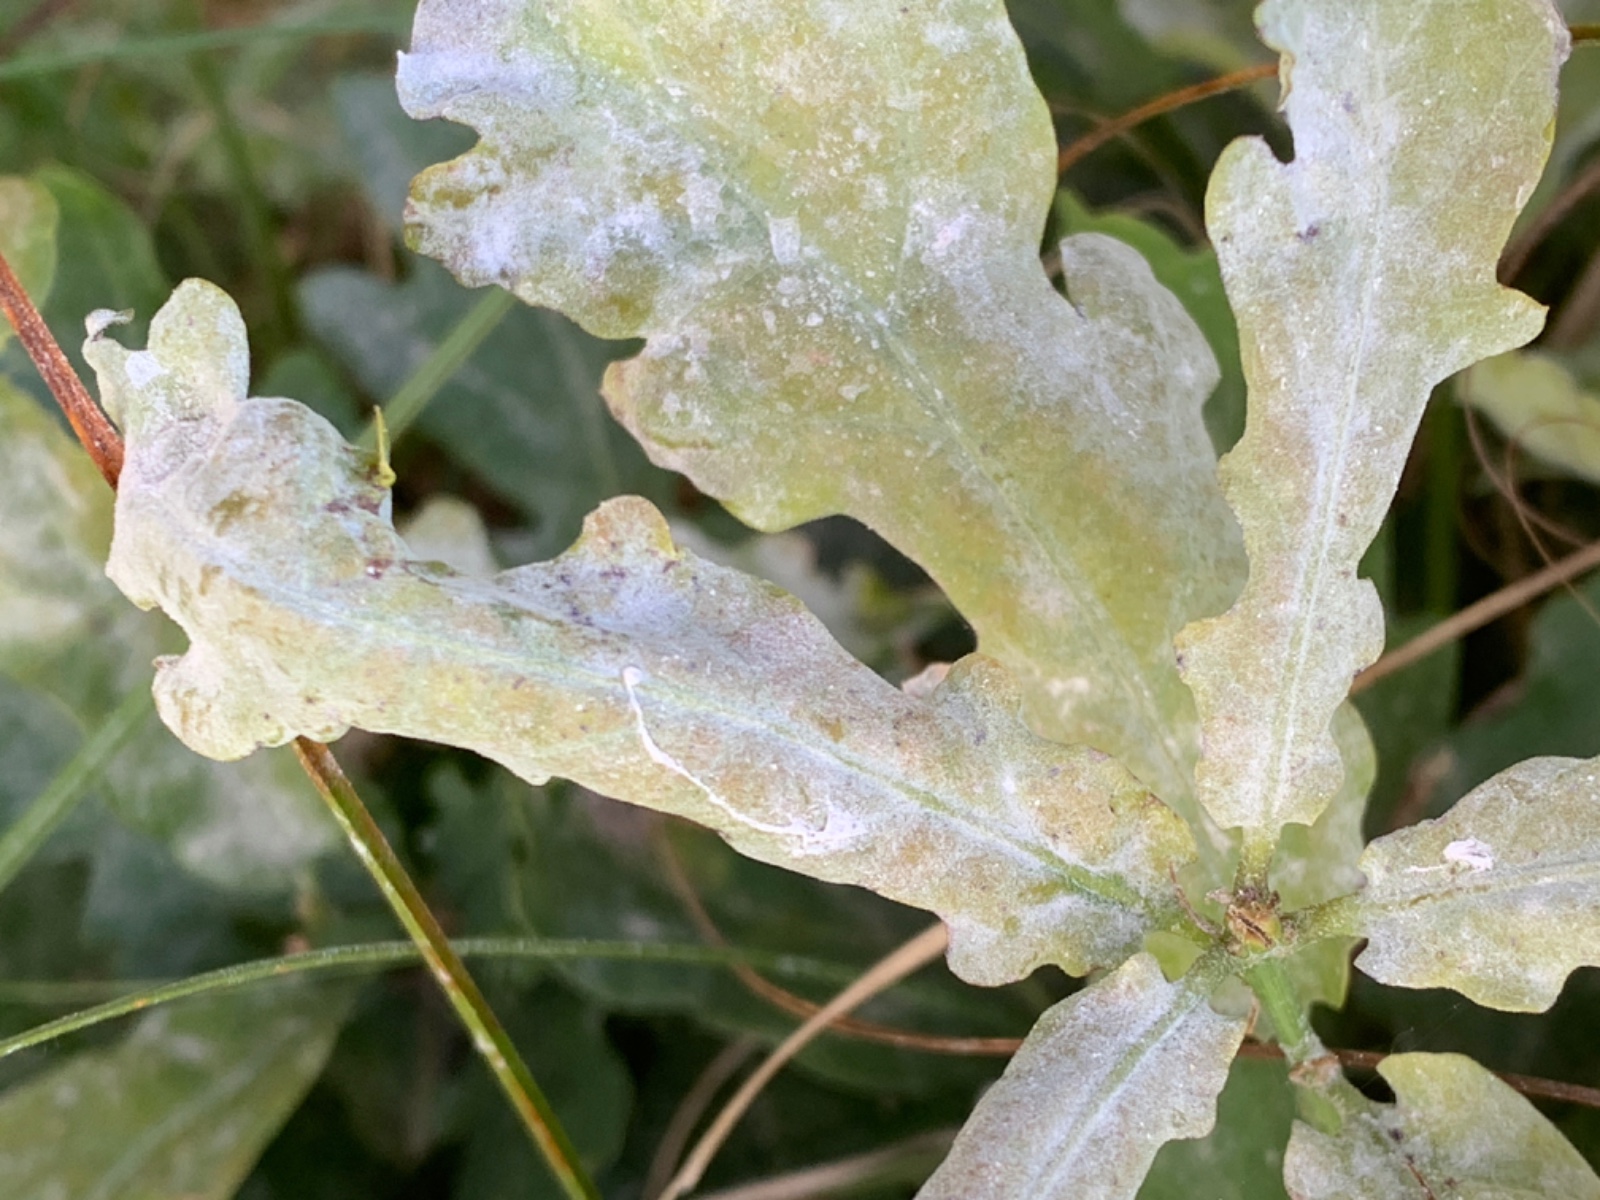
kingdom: Fungi
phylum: Ascomycota
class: Leotiomycetes
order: Helotiales
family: Erysiphaceae
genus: Erysiphe
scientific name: Erysiphe alphitoides
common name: ege-meldug
